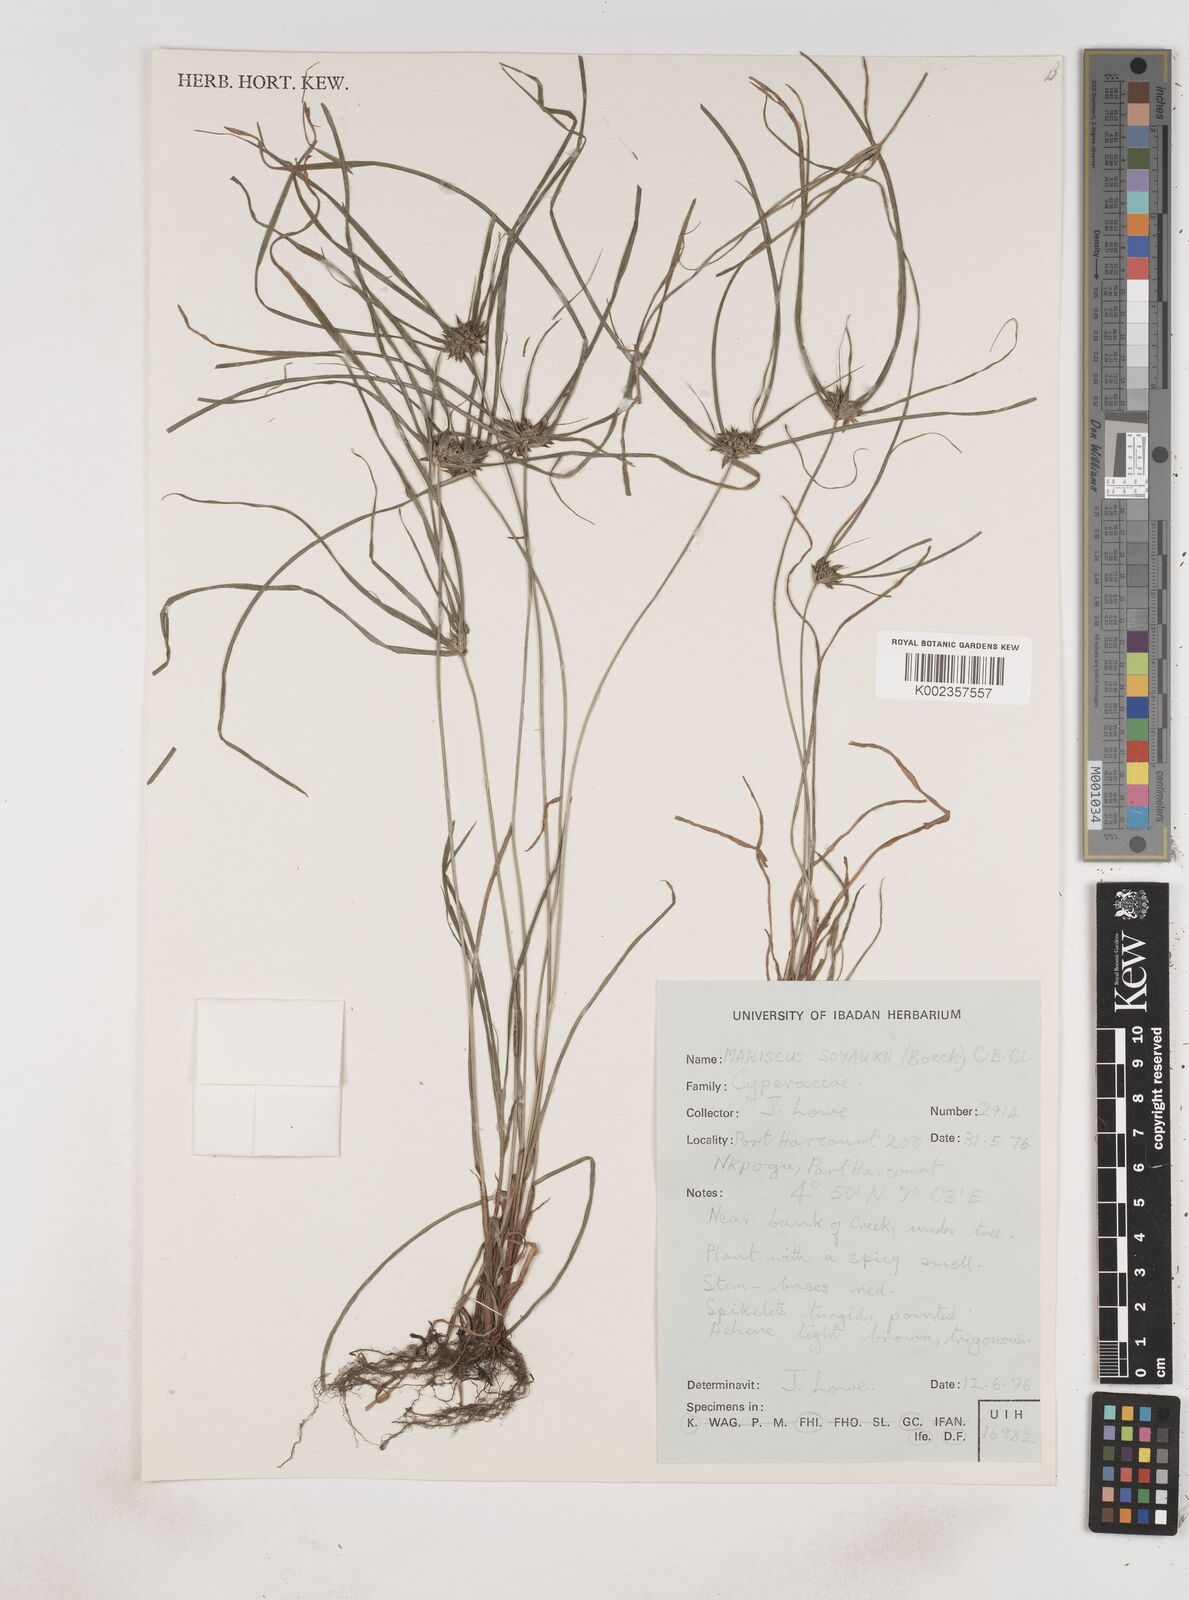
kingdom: Plantae
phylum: Tracheophyta
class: Liliopsida
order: Poales
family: Cyperaceae
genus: Cyperus
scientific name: Cyperus soyauxii
